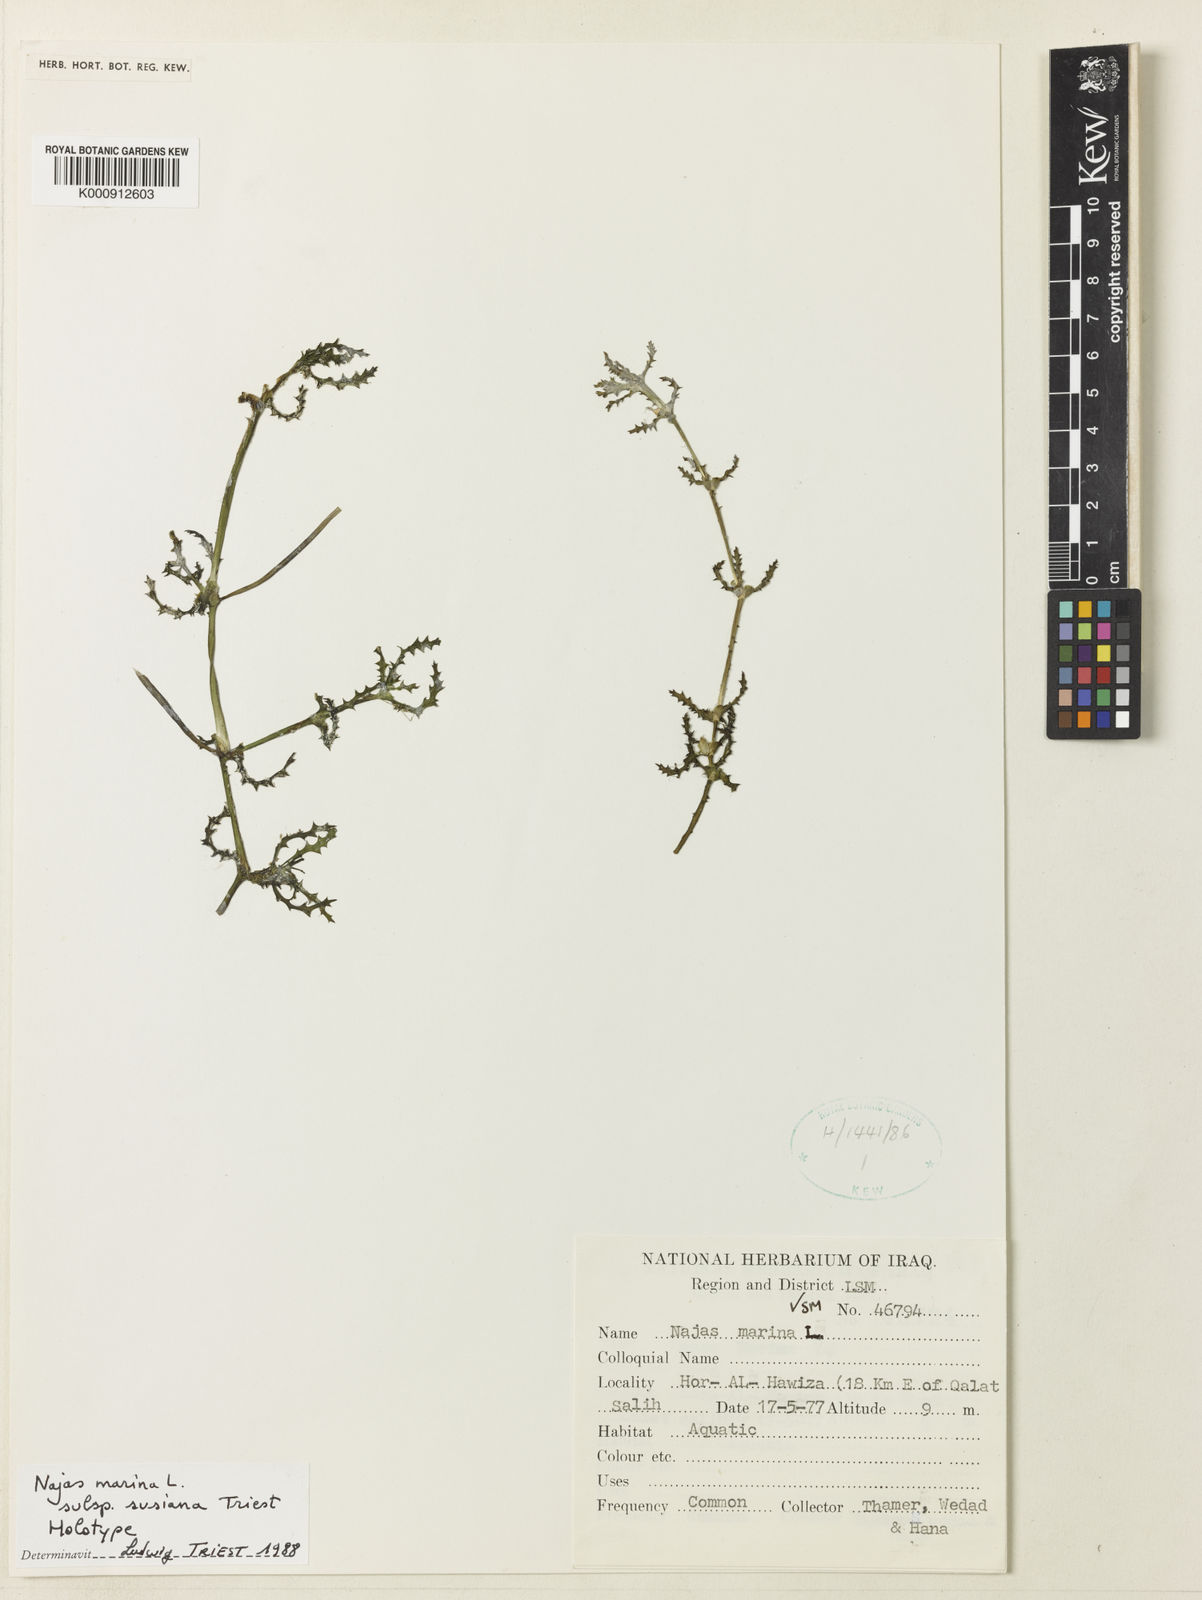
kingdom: Plantae
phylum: Tracheophyta
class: Liliopsida
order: Alismatales
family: Hydrocharitaceae
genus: Najas
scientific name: Najas major
